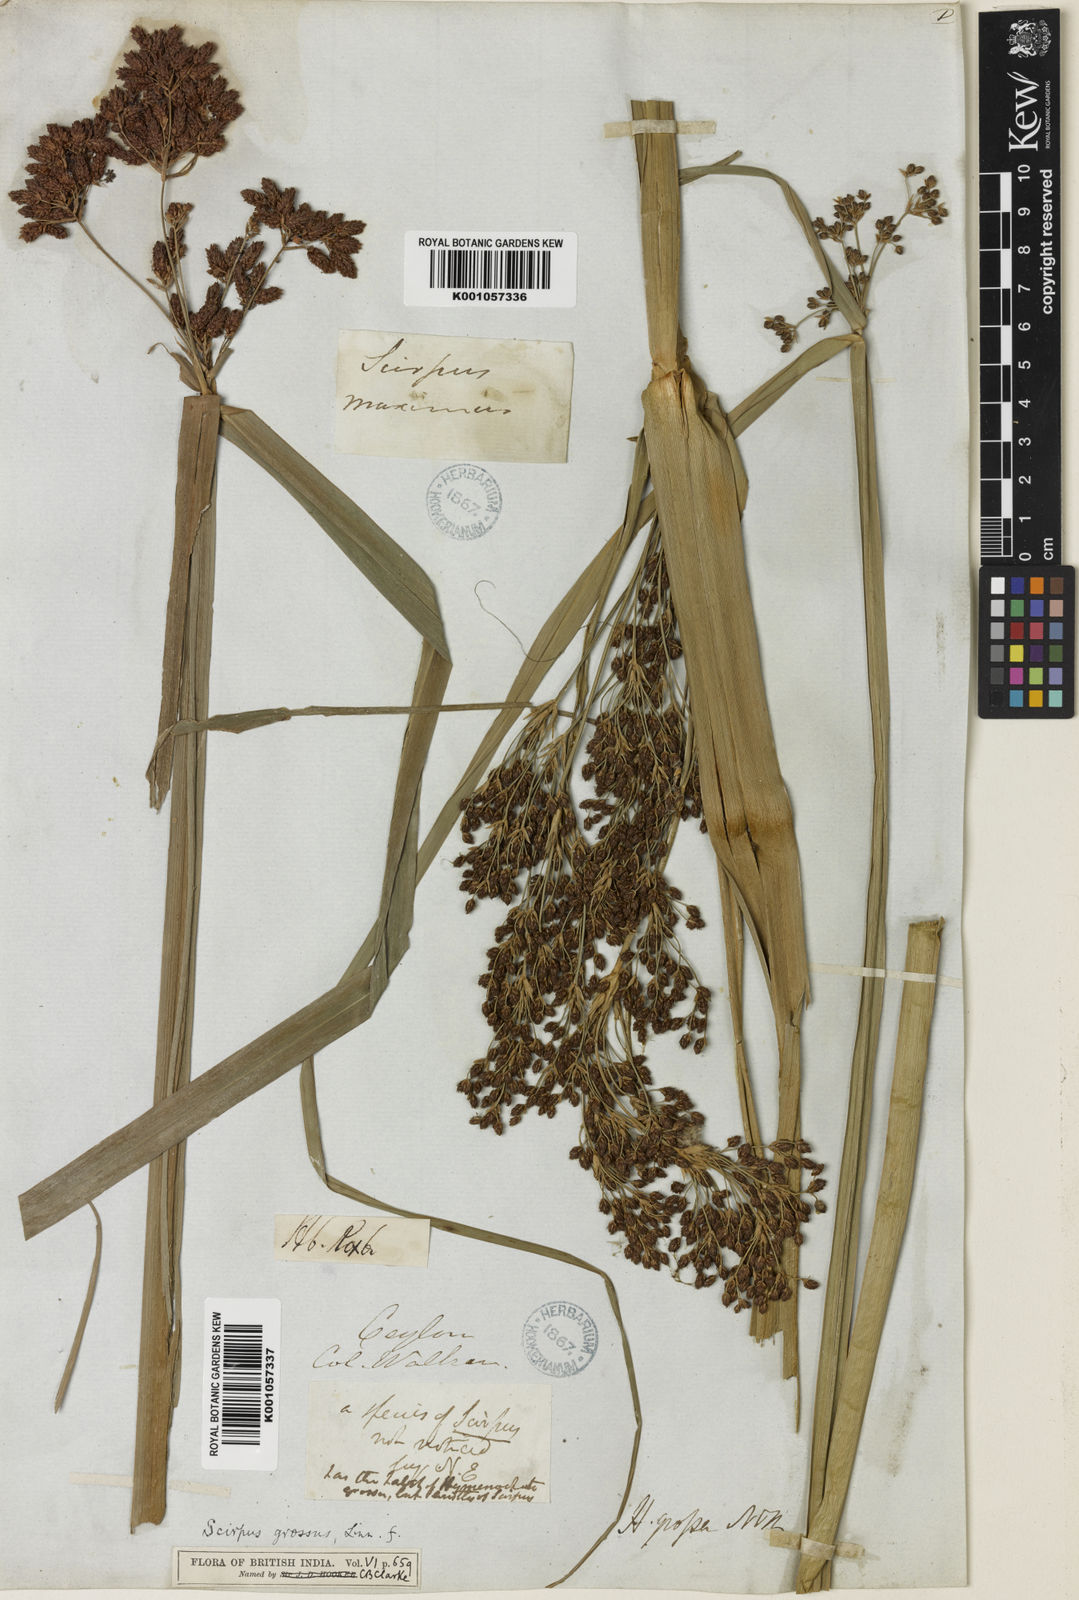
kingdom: Plantae
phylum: Tracheophyta
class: Liliopsida
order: Poales
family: Cyperaceae
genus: Actinoscirpus
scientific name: Actinoscirpus grossus
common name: Giant bur rush
